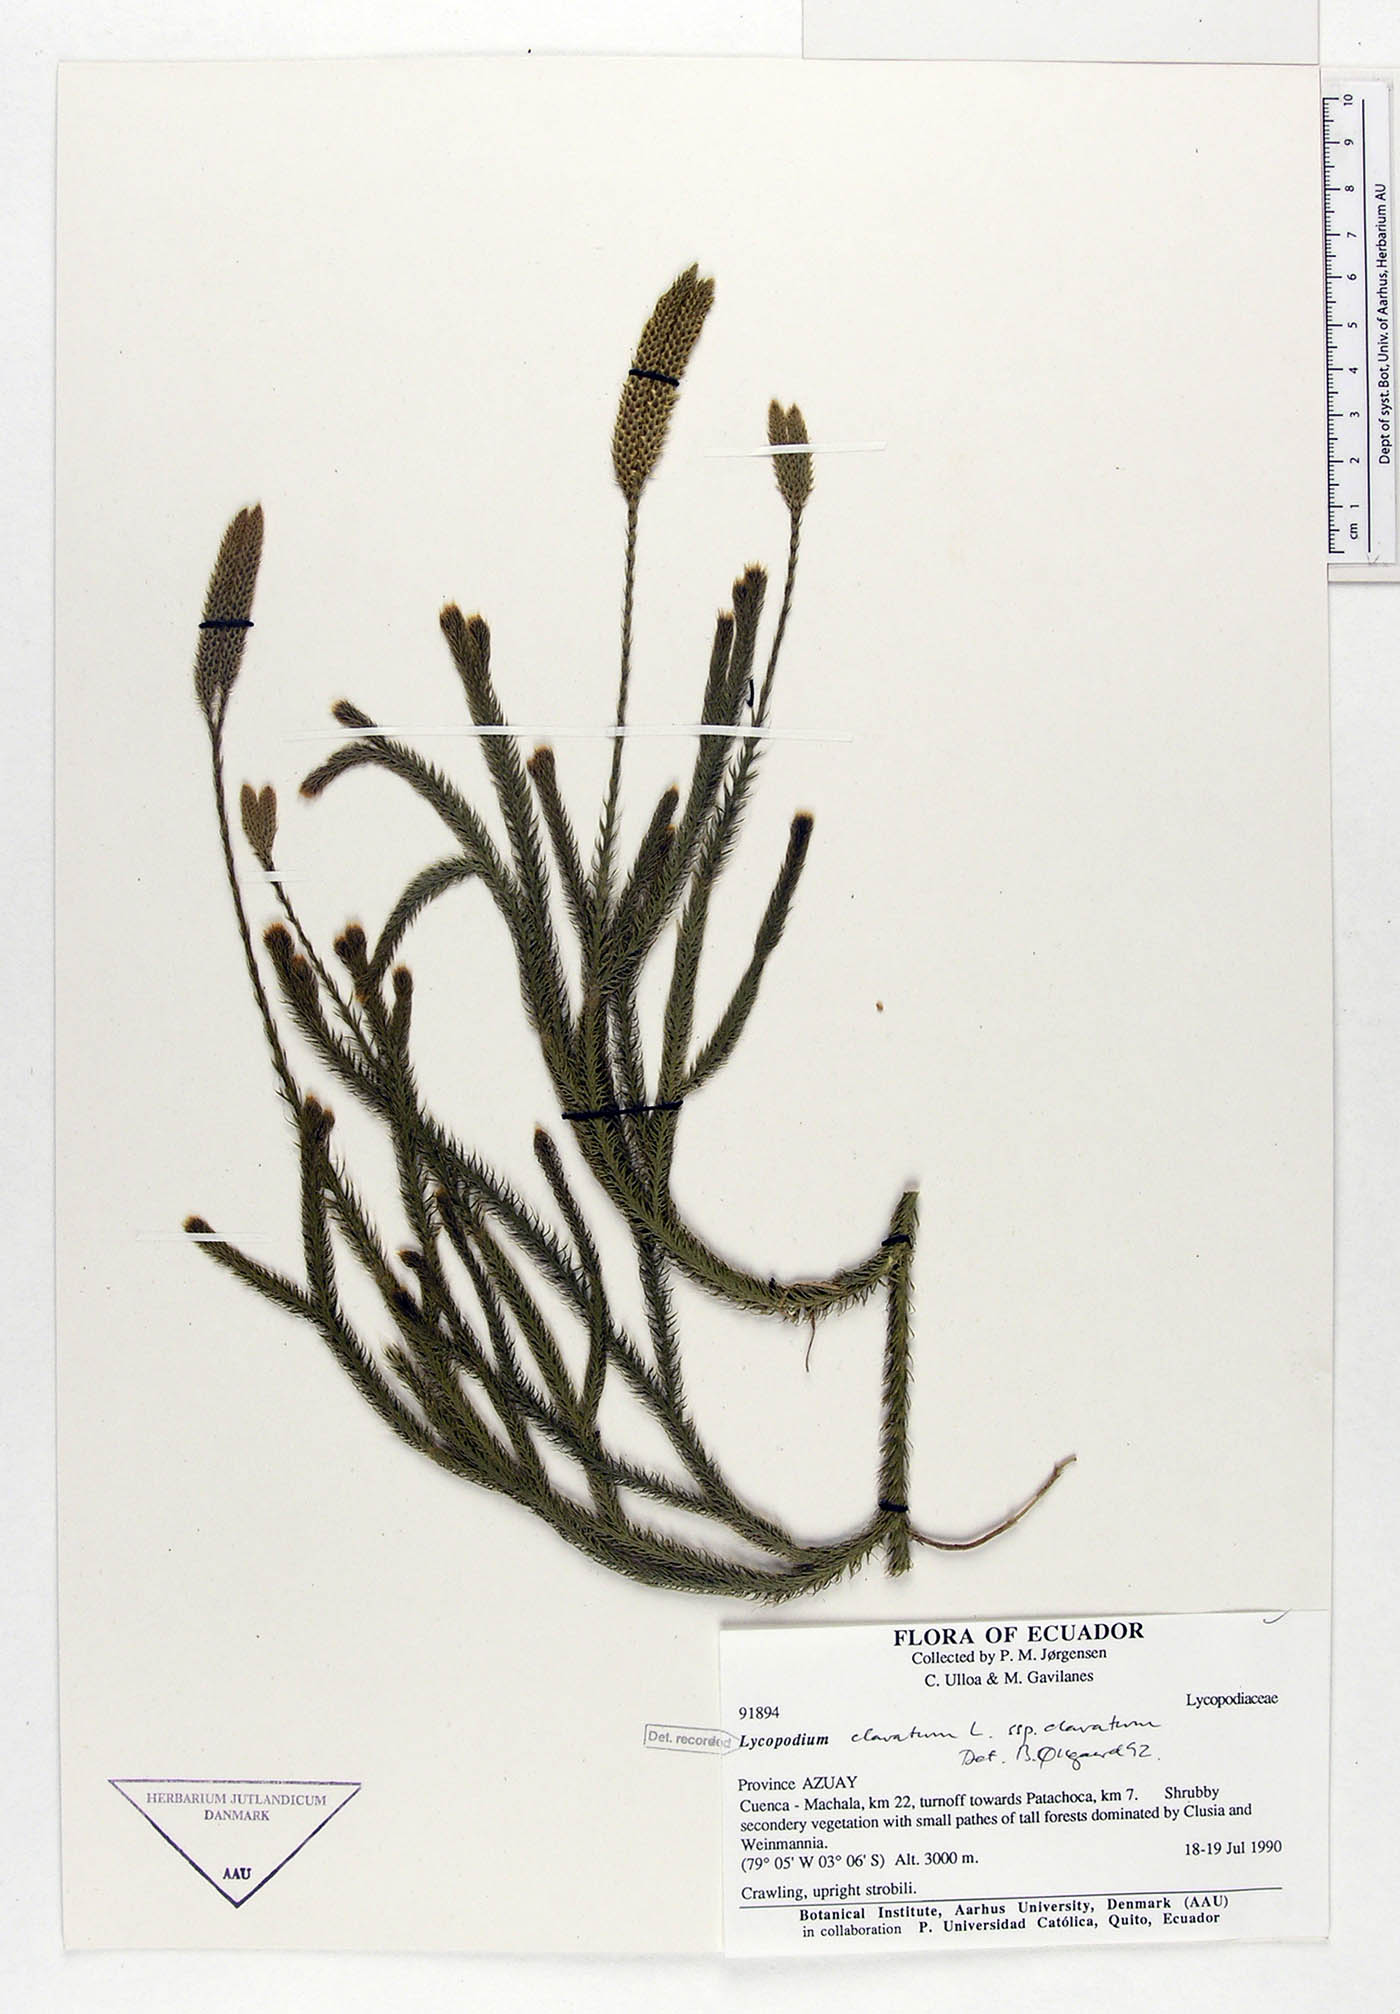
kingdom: Plantae
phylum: Tracheophyta
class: Lycopodiopsida
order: Lycopodiales
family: Lycopodiaceae
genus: Lycopodium
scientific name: Lycopodium clavatum
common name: Stag's-horn clubmoss
